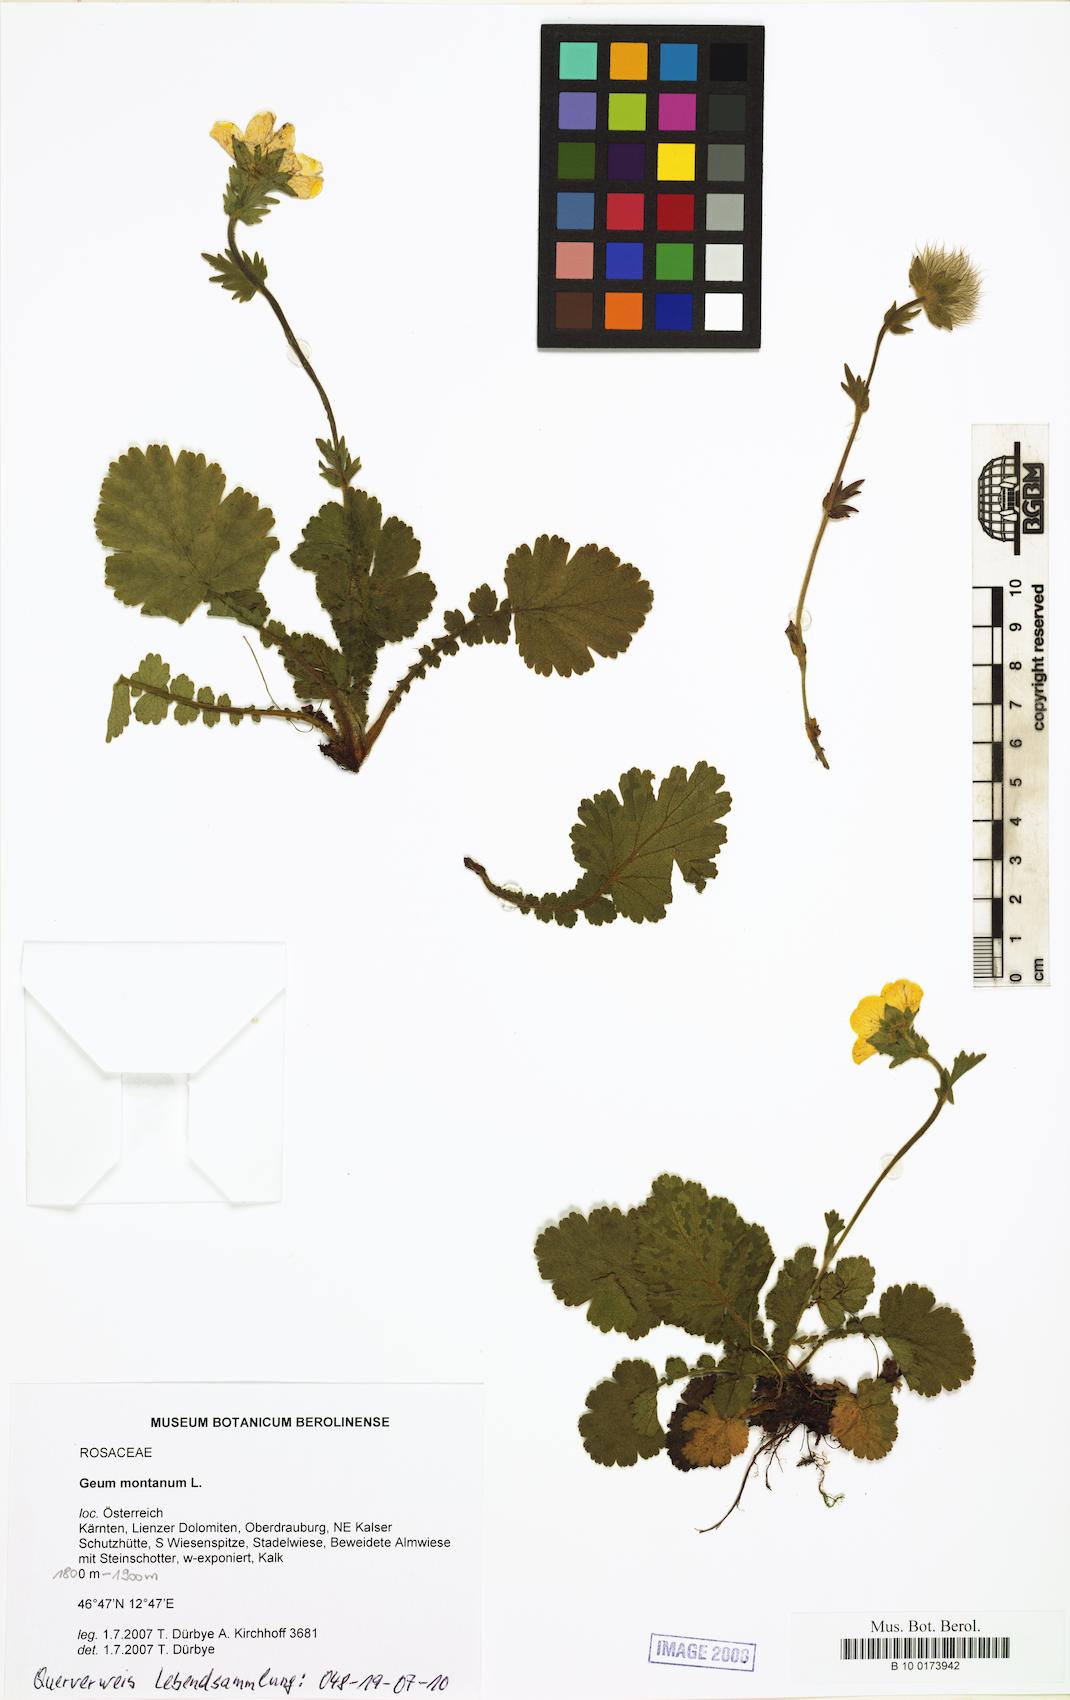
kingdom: Plantae
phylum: Tracheophyta
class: Magnoliopsida
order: Rosales
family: Rosaceae
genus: Geum
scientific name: Geum montanum
